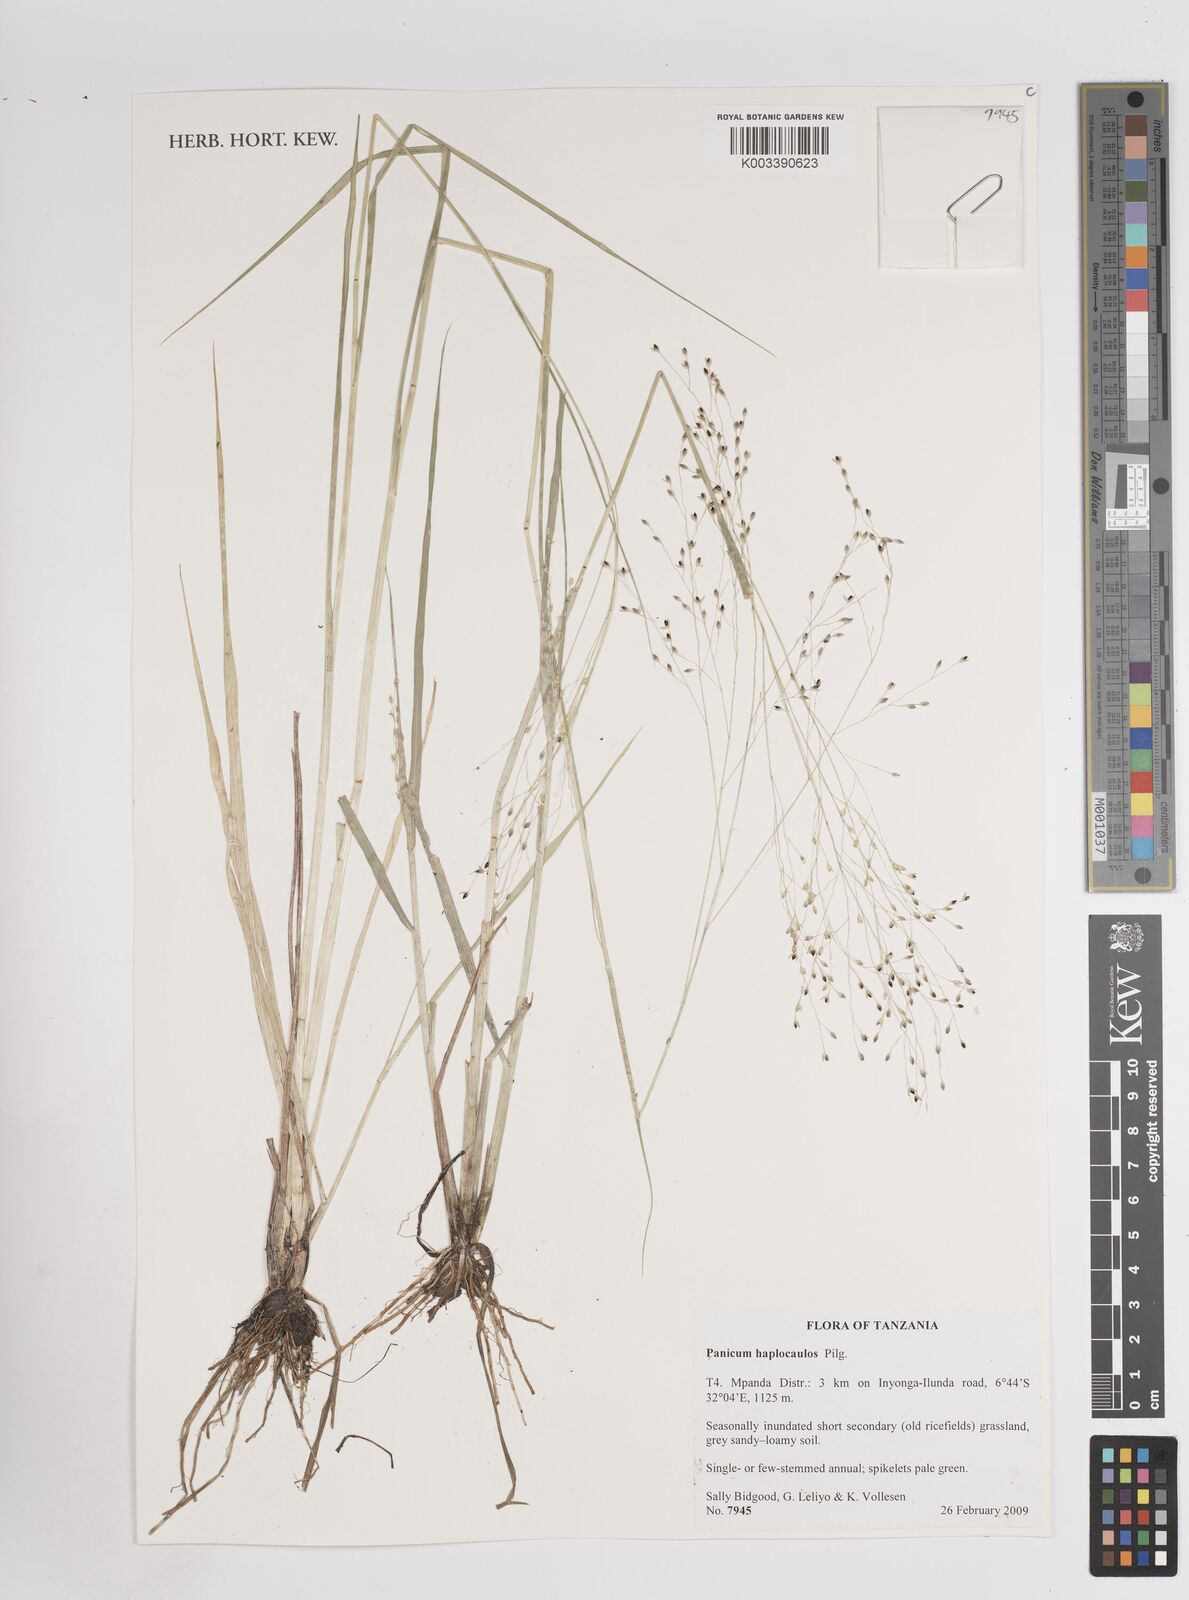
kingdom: Plantae
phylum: Tracheophyta
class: Liliopsida
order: Poales
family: Poaceae
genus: Panicum
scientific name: Panicum haplocaulos
